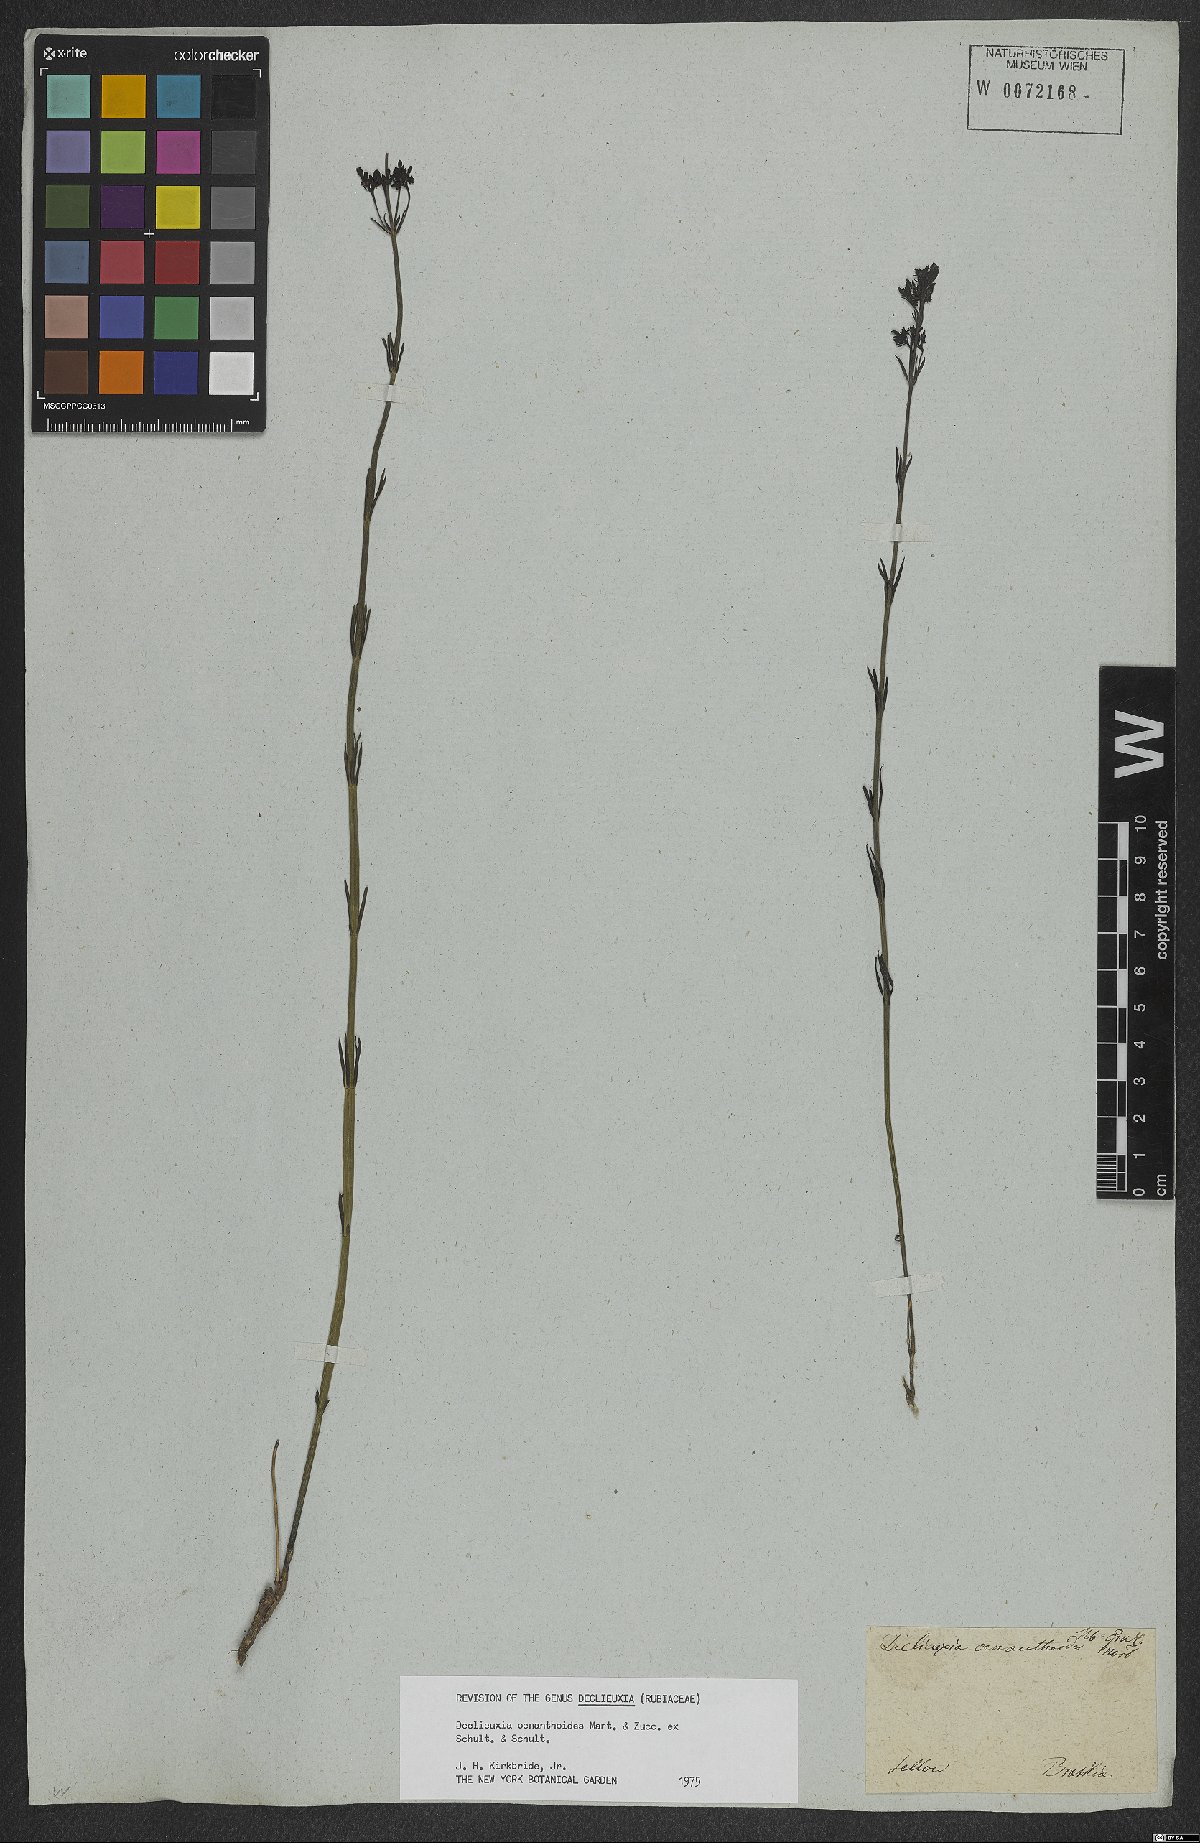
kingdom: Plantae
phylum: Tracheophyta
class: Magnoliopsida
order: Gentianales
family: Rubiaceae
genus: Declieuxia
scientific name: Declieuxia oenanthoides
